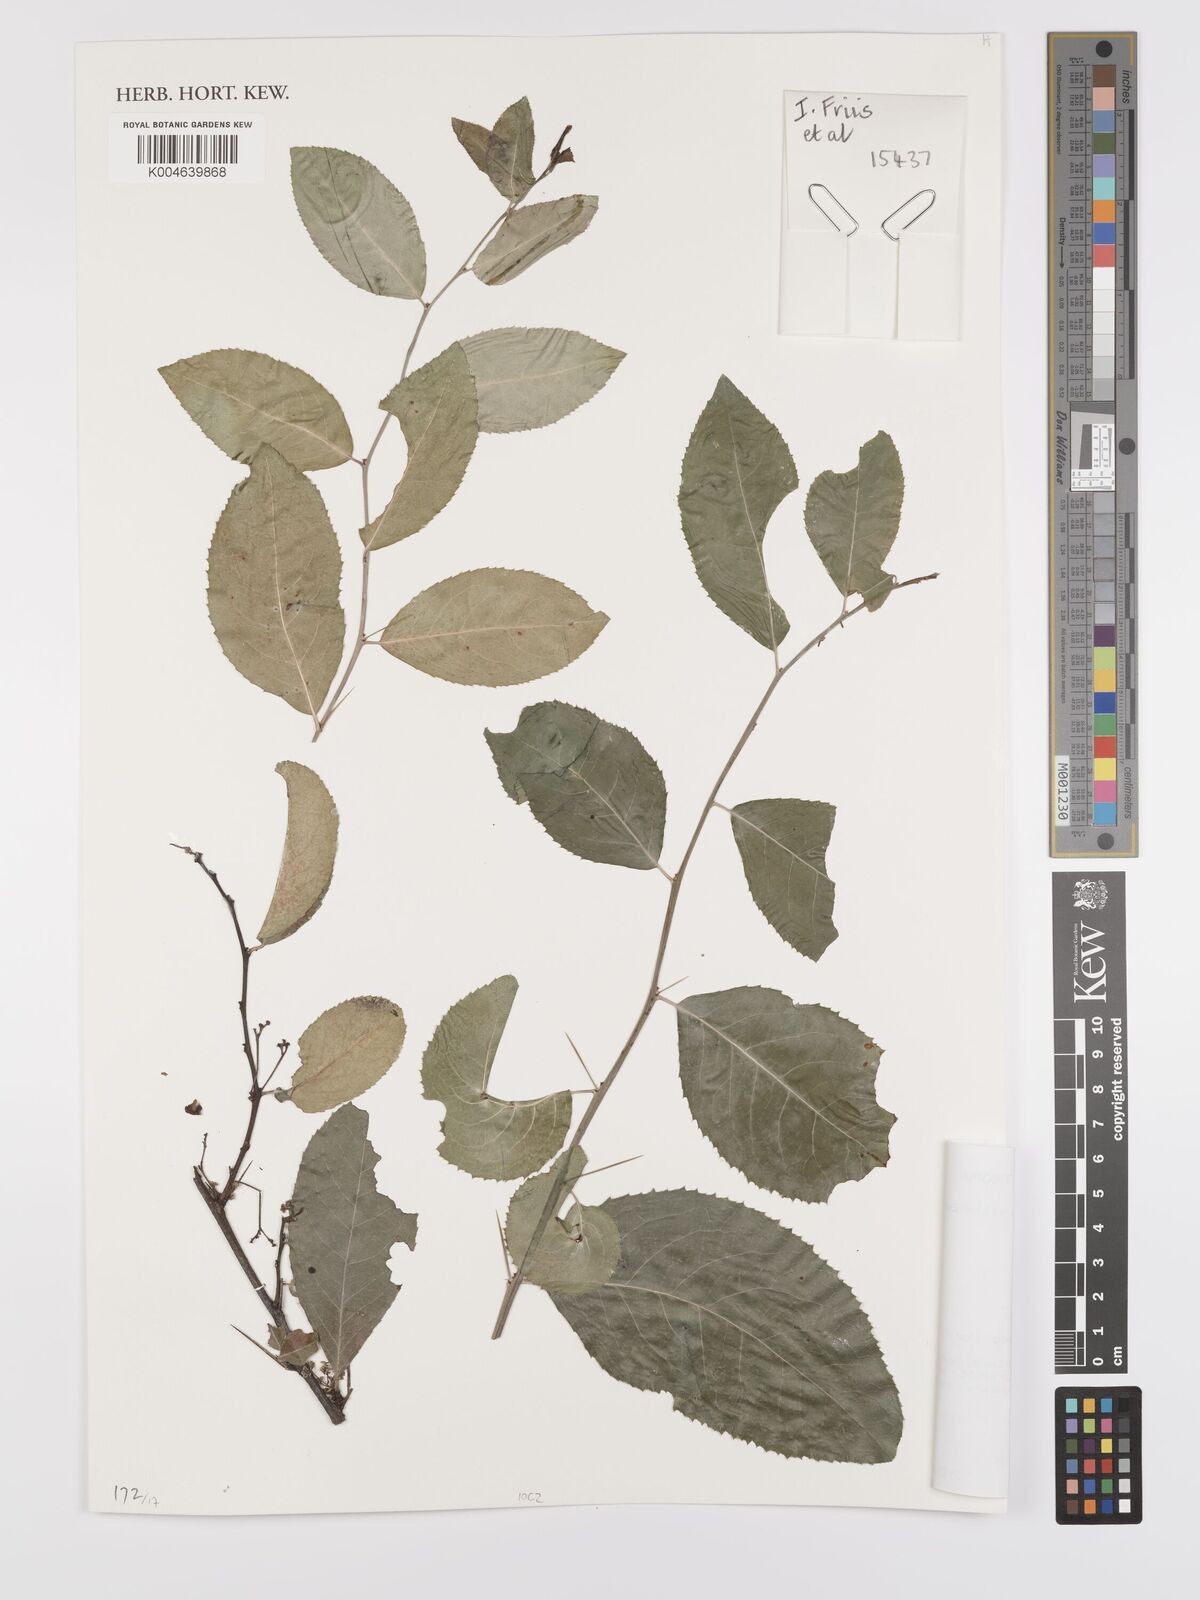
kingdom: Plantae
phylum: Tracheophyta
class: Magnoliopsida
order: Celastrales
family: Celastraceae
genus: Gymnosporia
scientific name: Gymnosporia senegalensis
